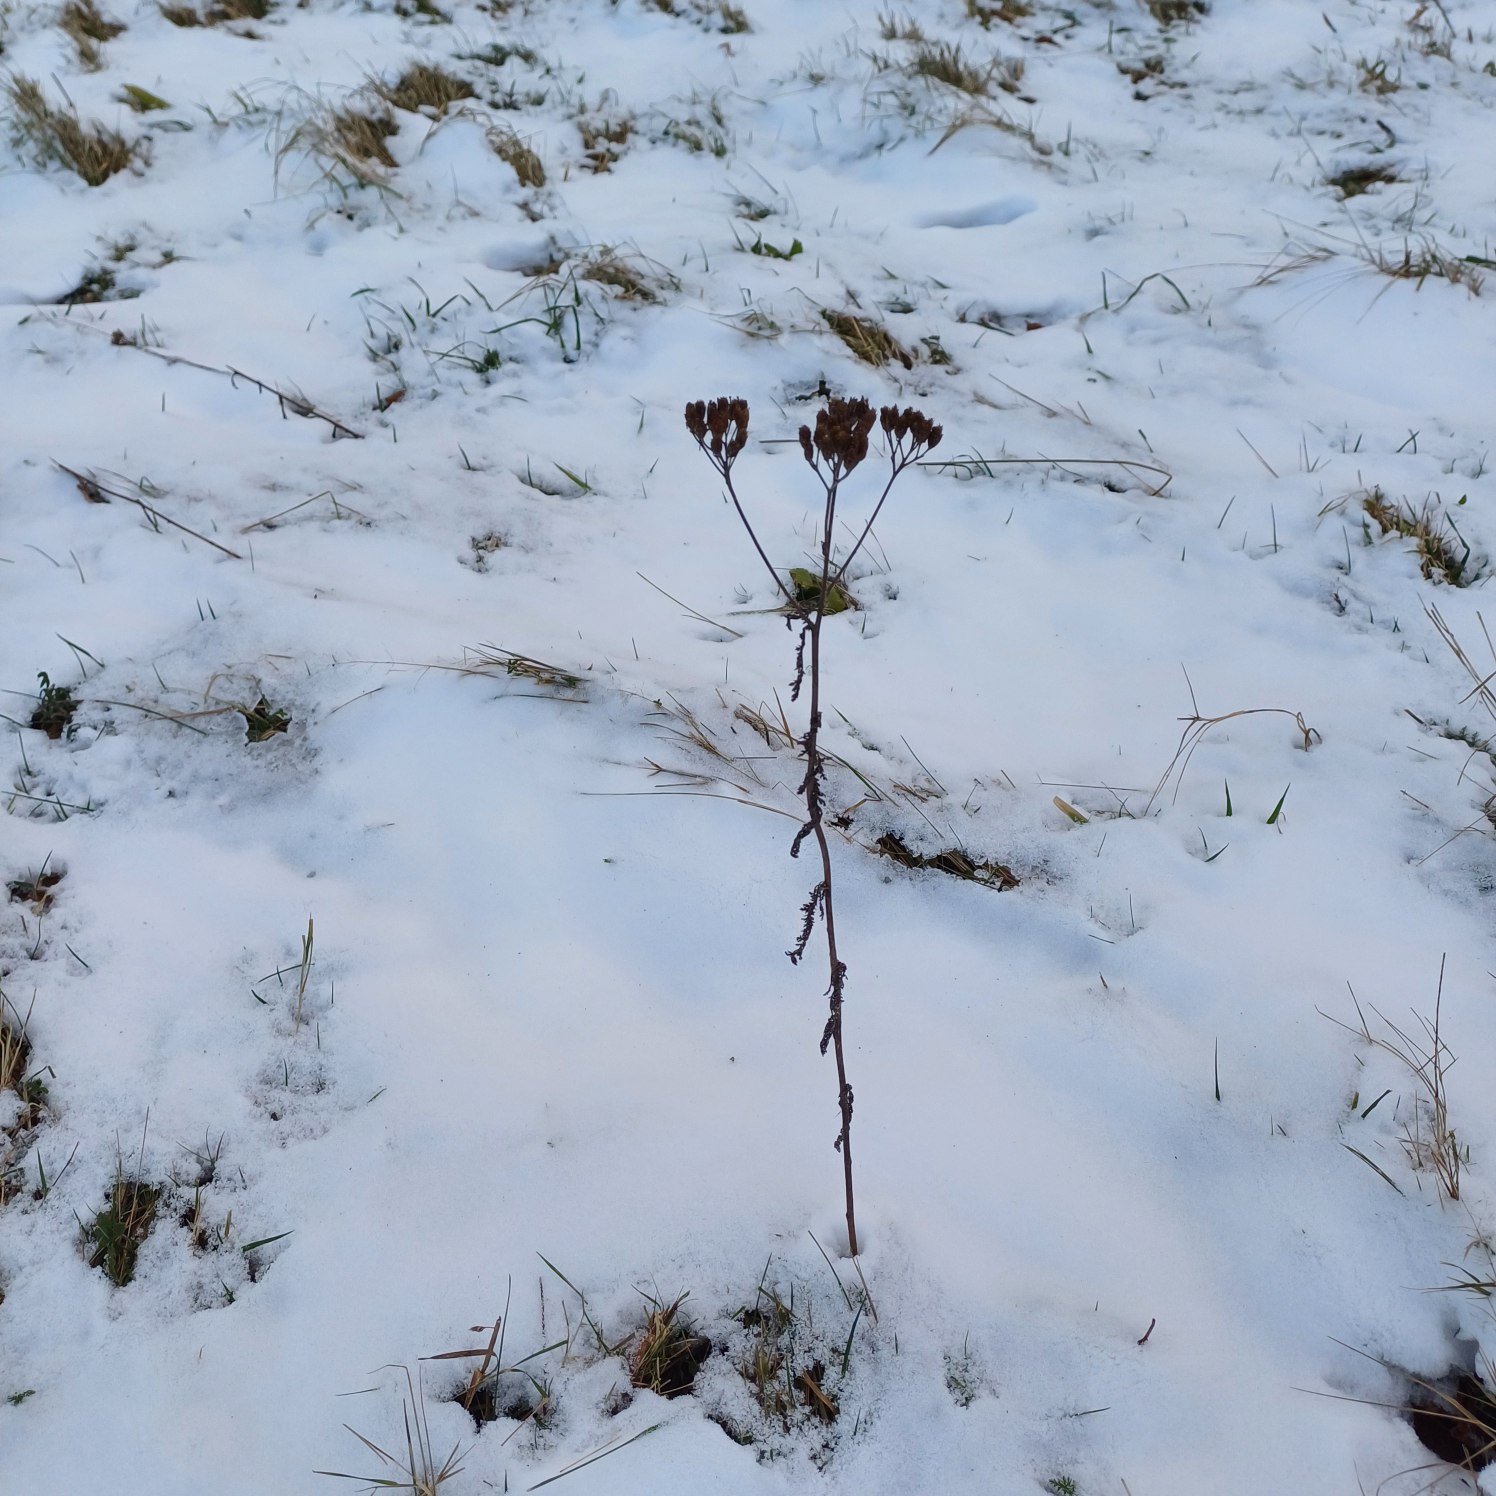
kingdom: Plantae
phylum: Tracheophyta
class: Magnoliopsida
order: Asterales
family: Asteraceae
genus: Achillea
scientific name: Achillea millefolium
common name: Almindelig røllike
